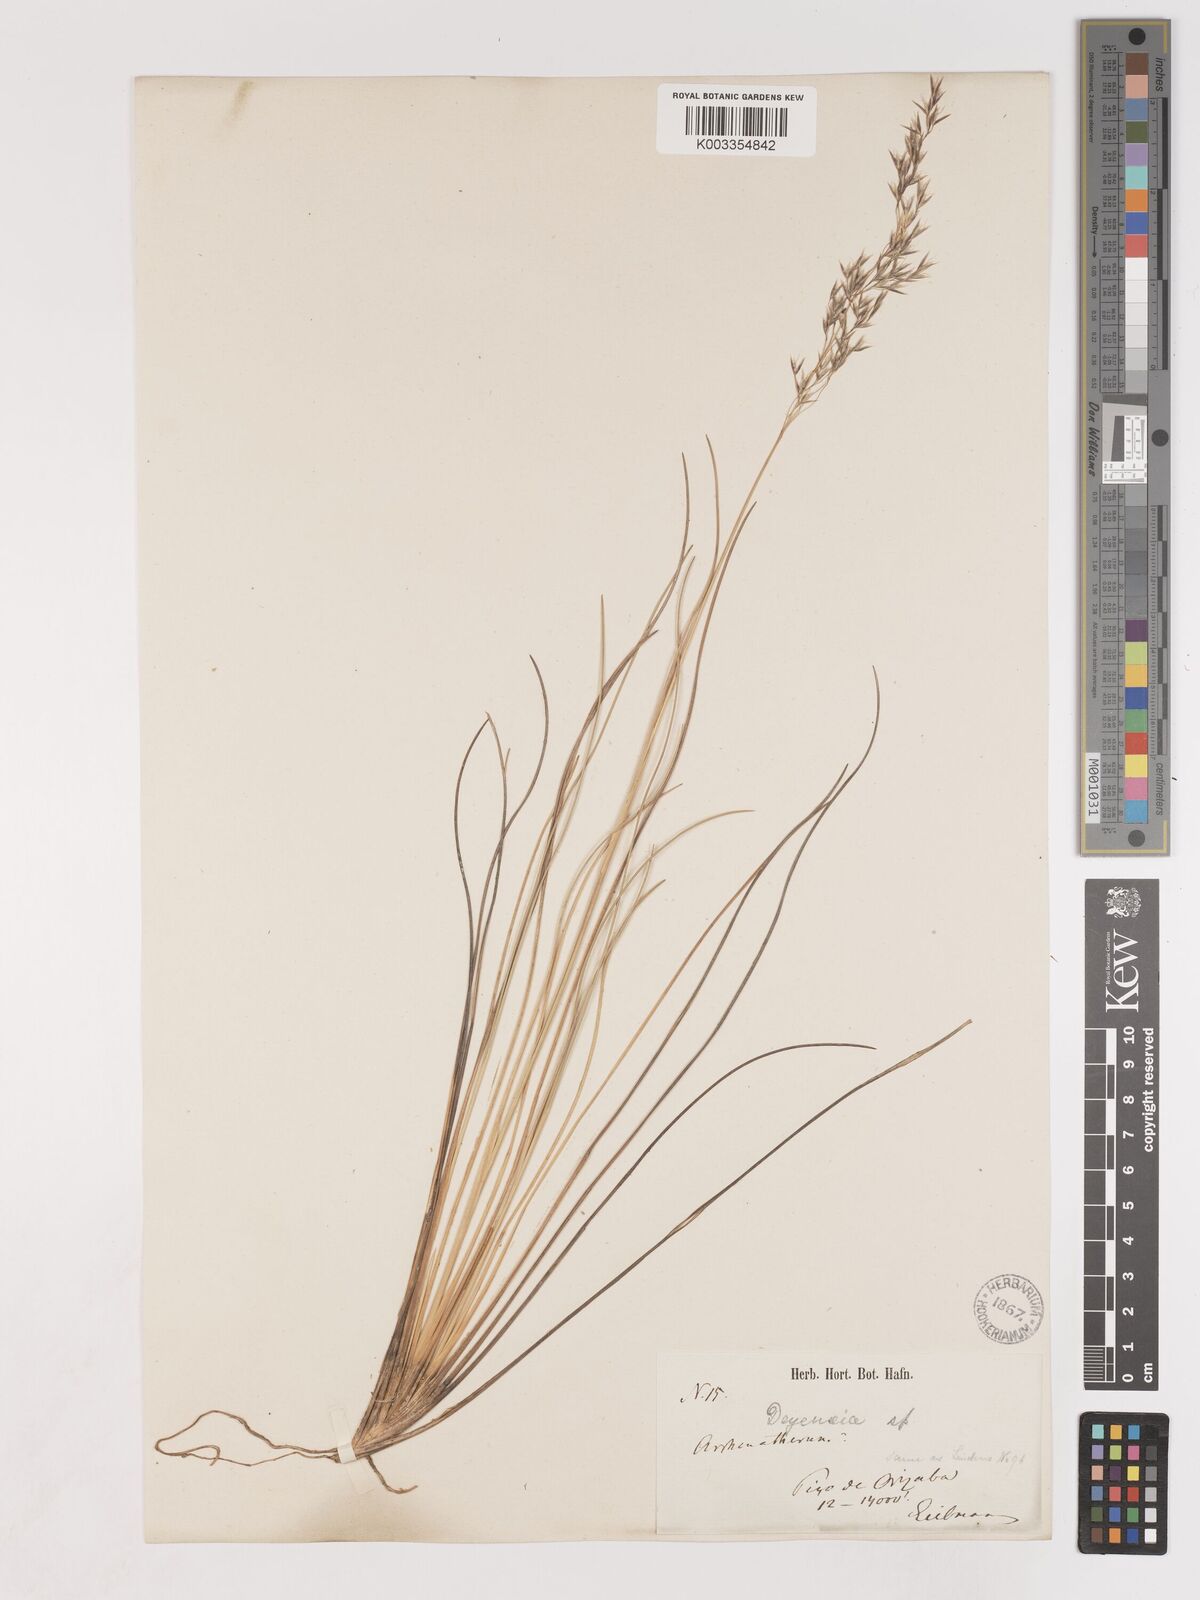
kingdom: Plantae
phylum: Tracheophyta
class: Liliopsida
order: Poales
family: Poaceae
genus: Peyritschia
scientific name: Peyritschia eriantha
